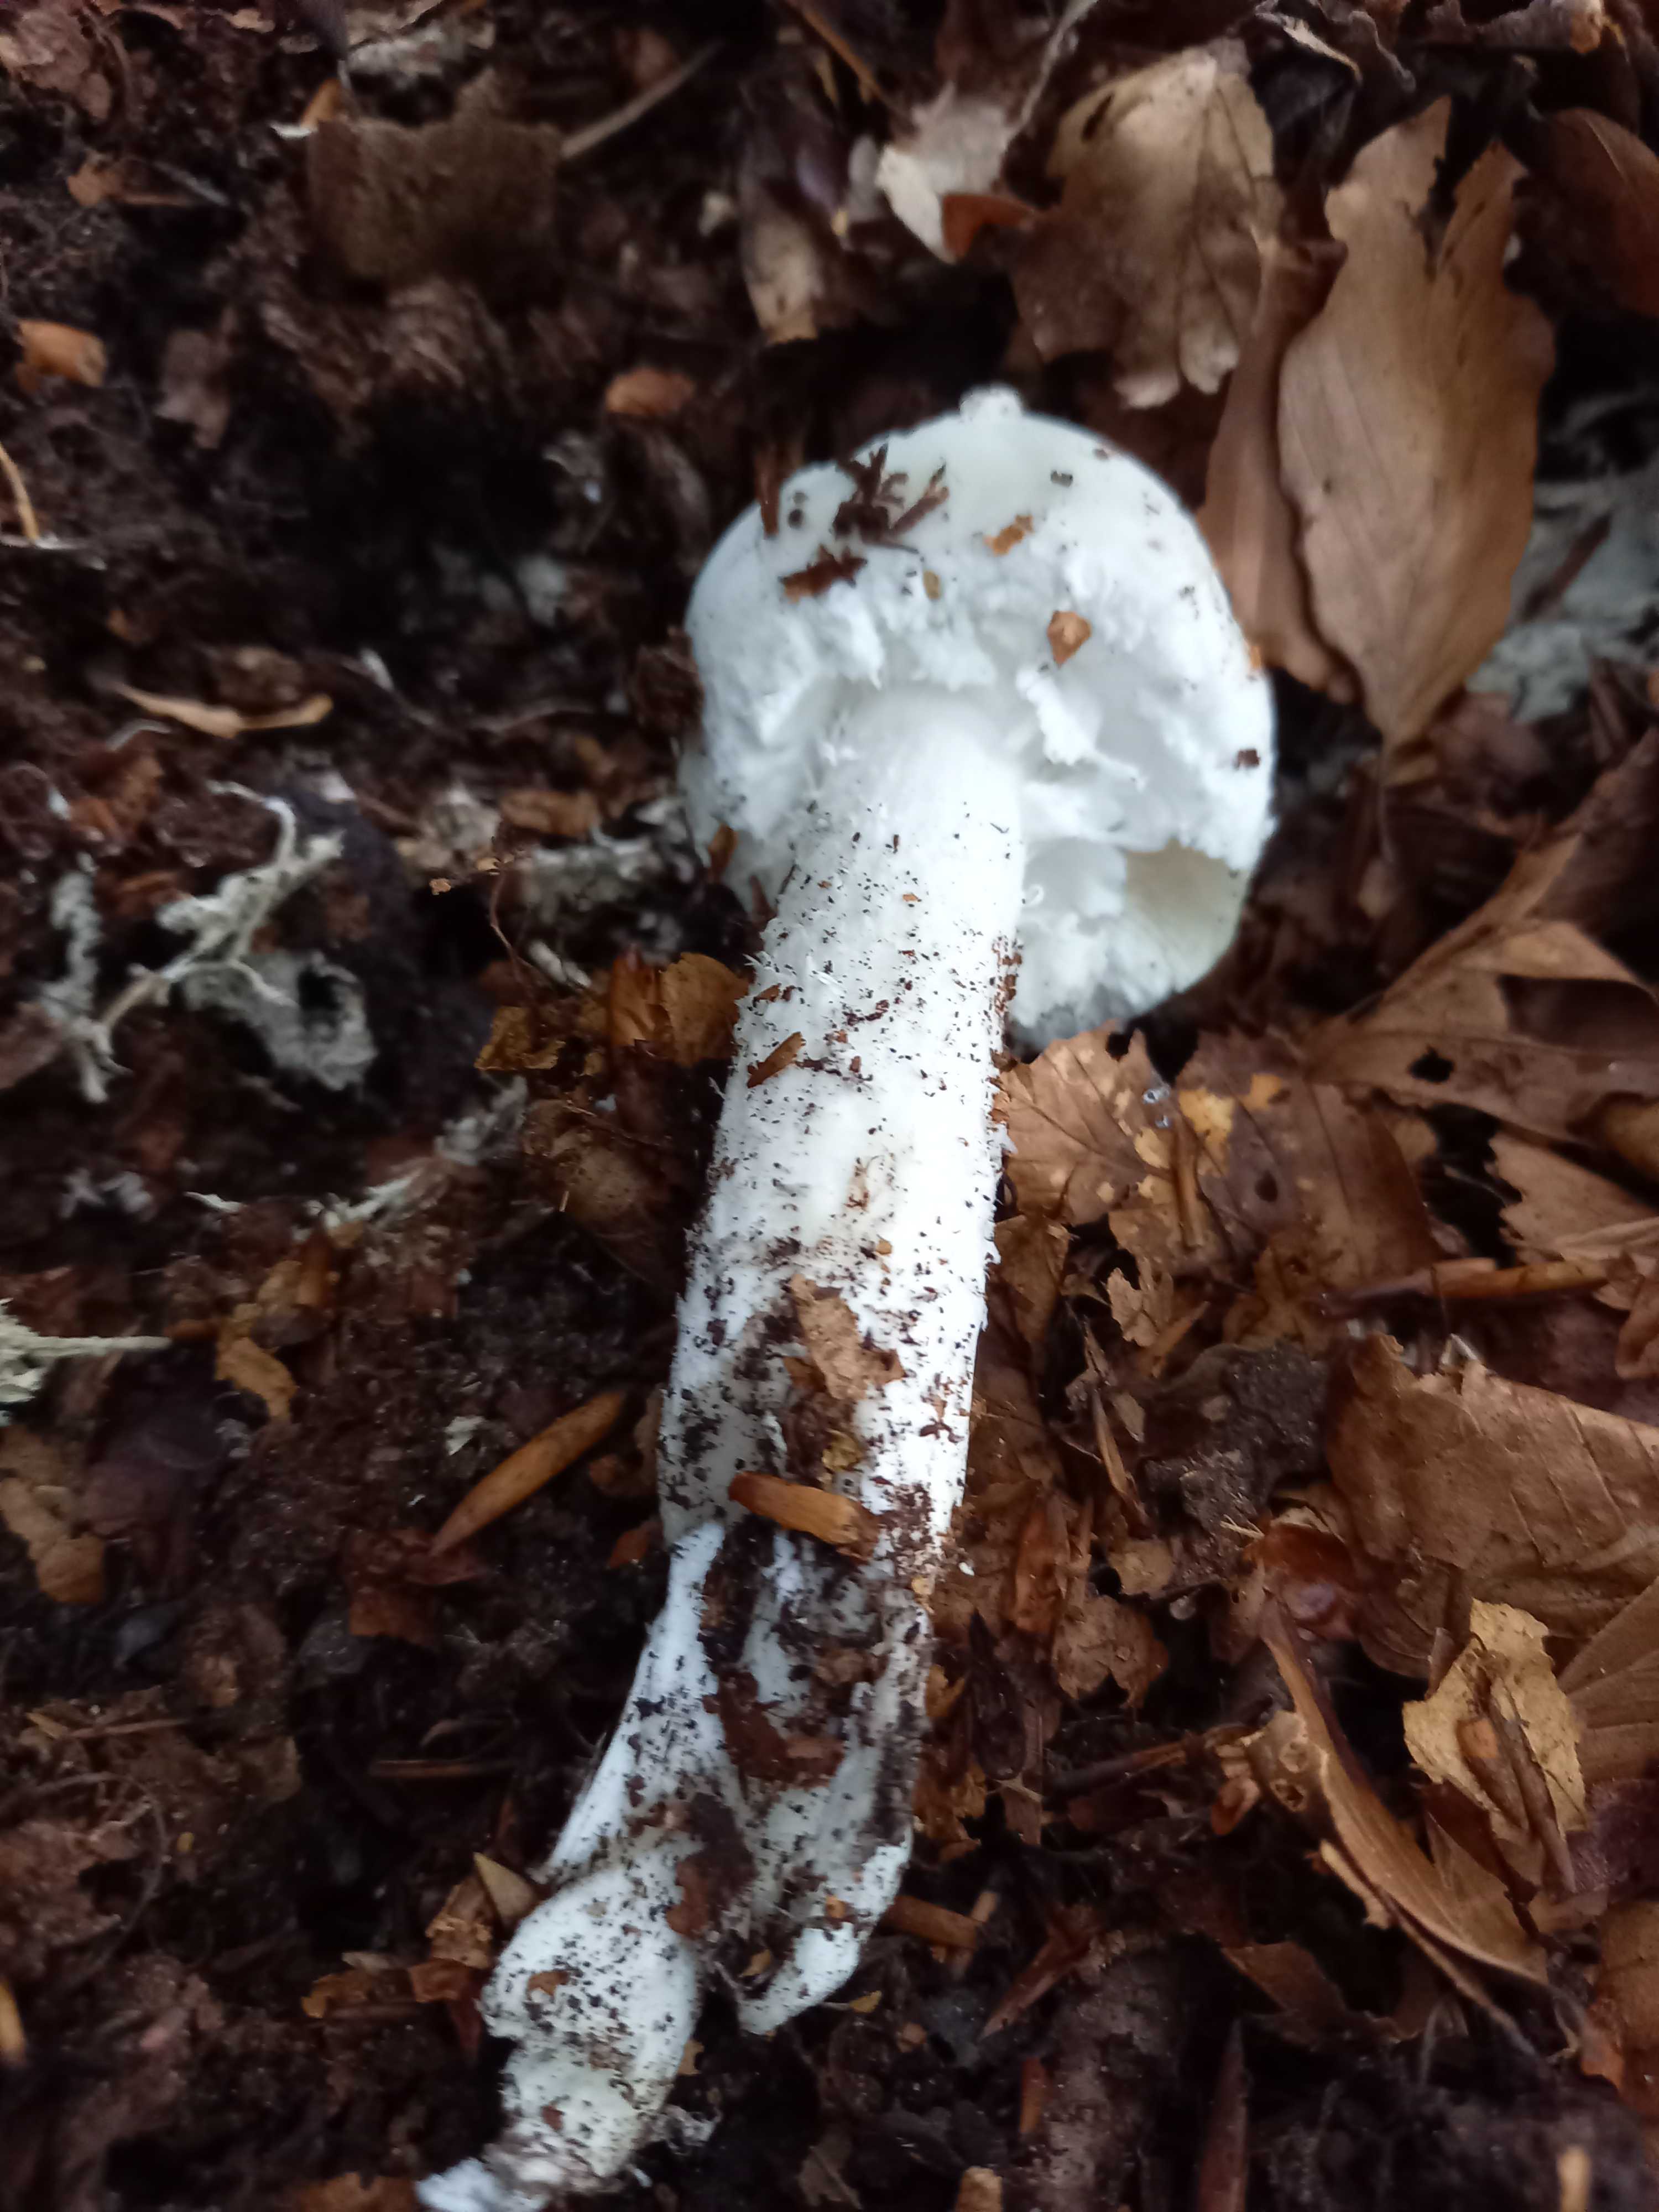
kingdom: Fungi
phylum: Basidiomycota
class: Agaricomycetes
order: Agaricales
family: Amanitaceae
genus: Amanita
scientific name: Amanita virosa
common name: snehvid fluesvamp
